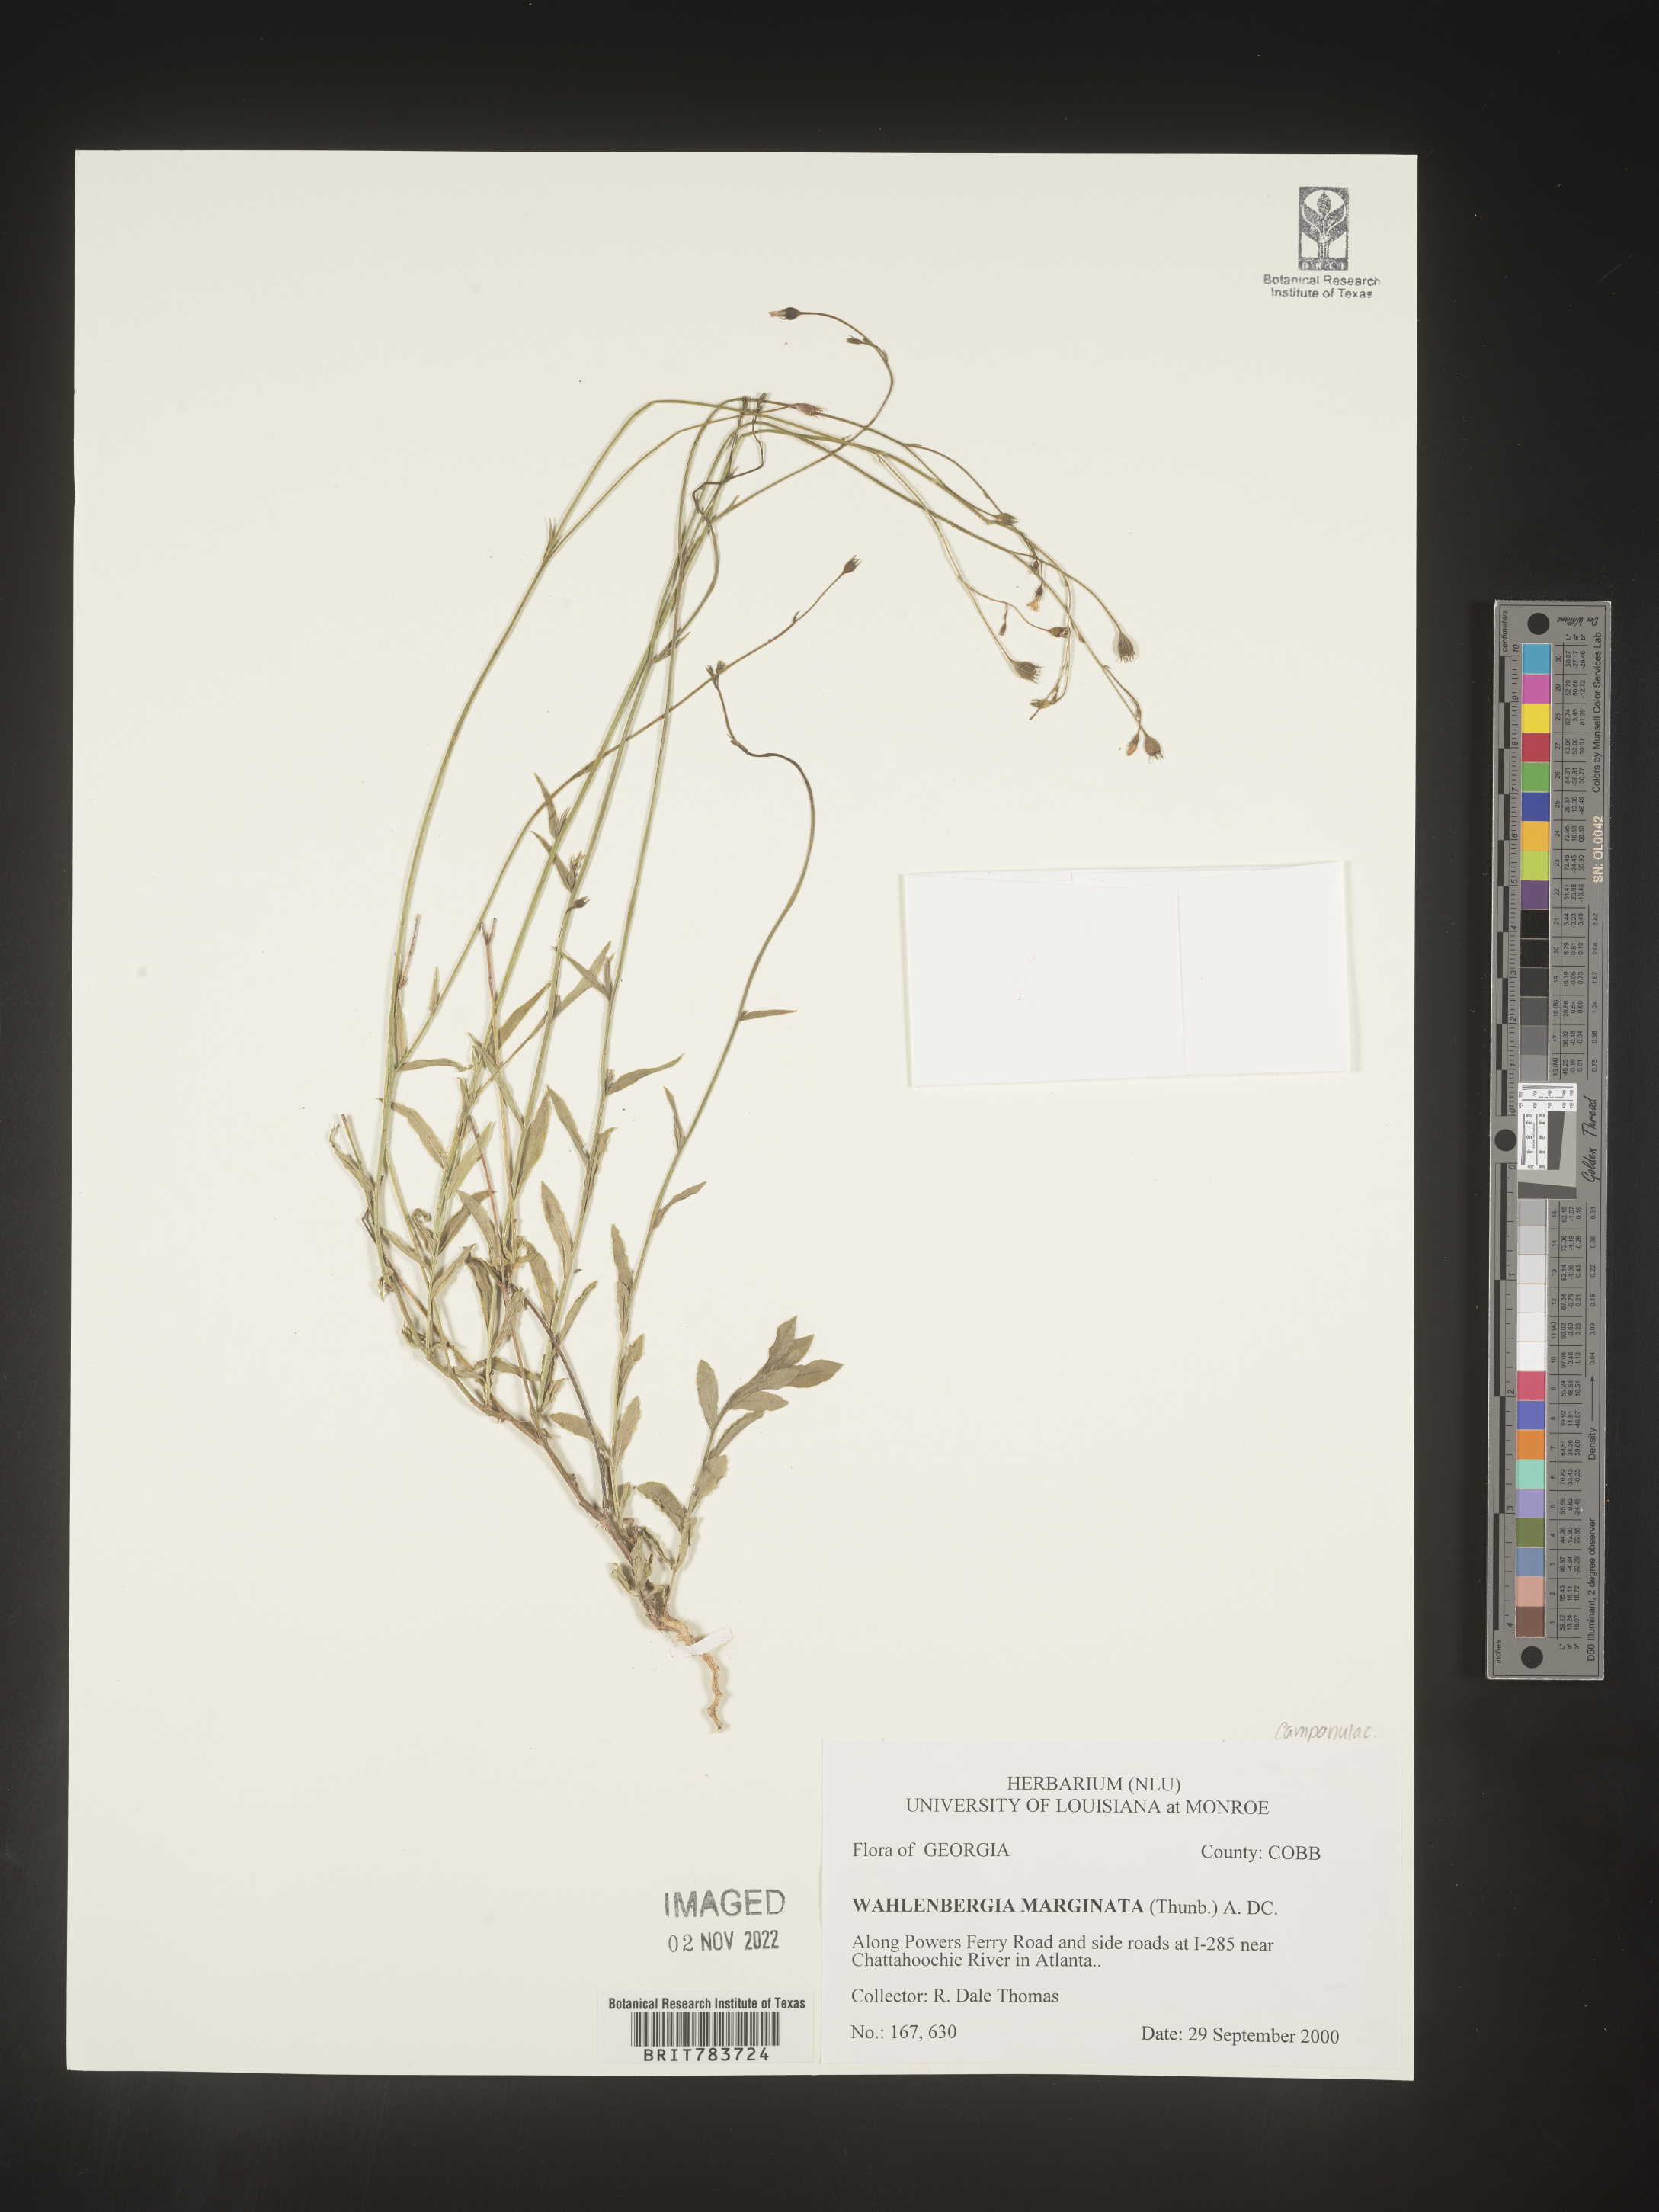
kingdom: Plantae
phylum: Tracheophyta
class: Magnoliopsida
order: Asterales
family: Campanulaceae
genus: Wahlenbergia
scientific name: Wahlenbergia marginata
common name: Southern rockbell
